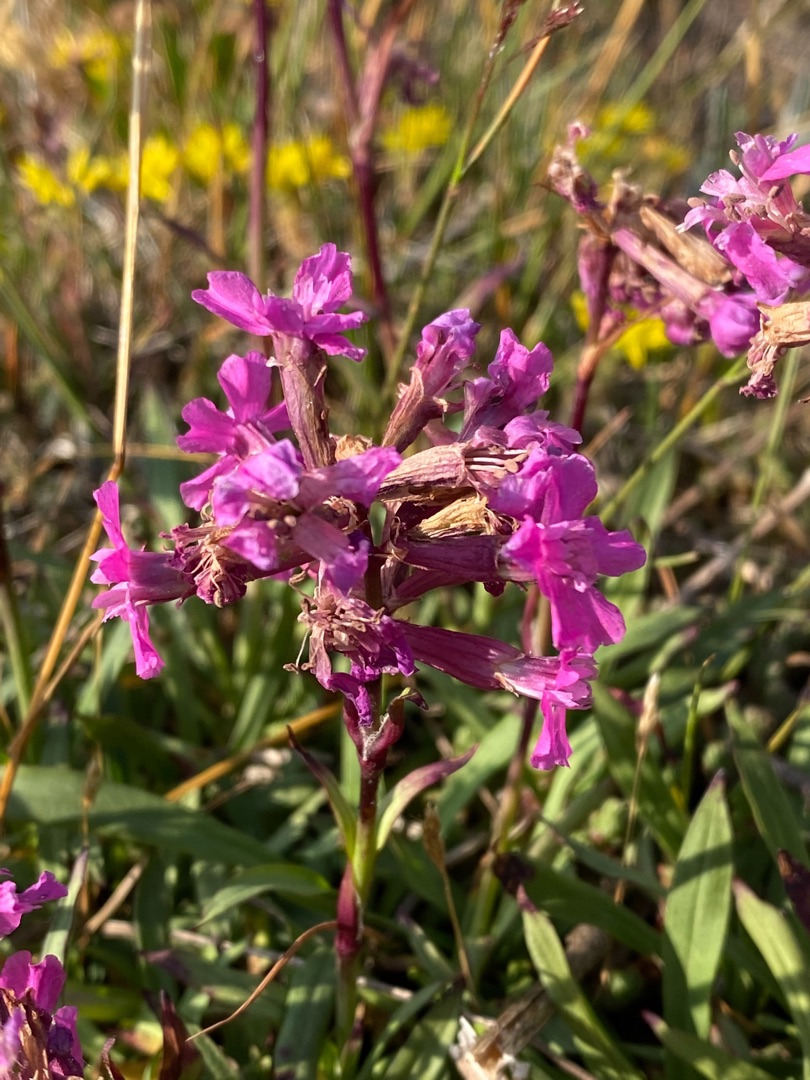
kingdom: Plantae
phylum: Tracheophyta
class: Magnoliopsida
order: Caryophyllales
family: Caryophyllaceae
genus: Viscaria
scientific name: Viscaria vulgaris
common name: Tjærenellike
